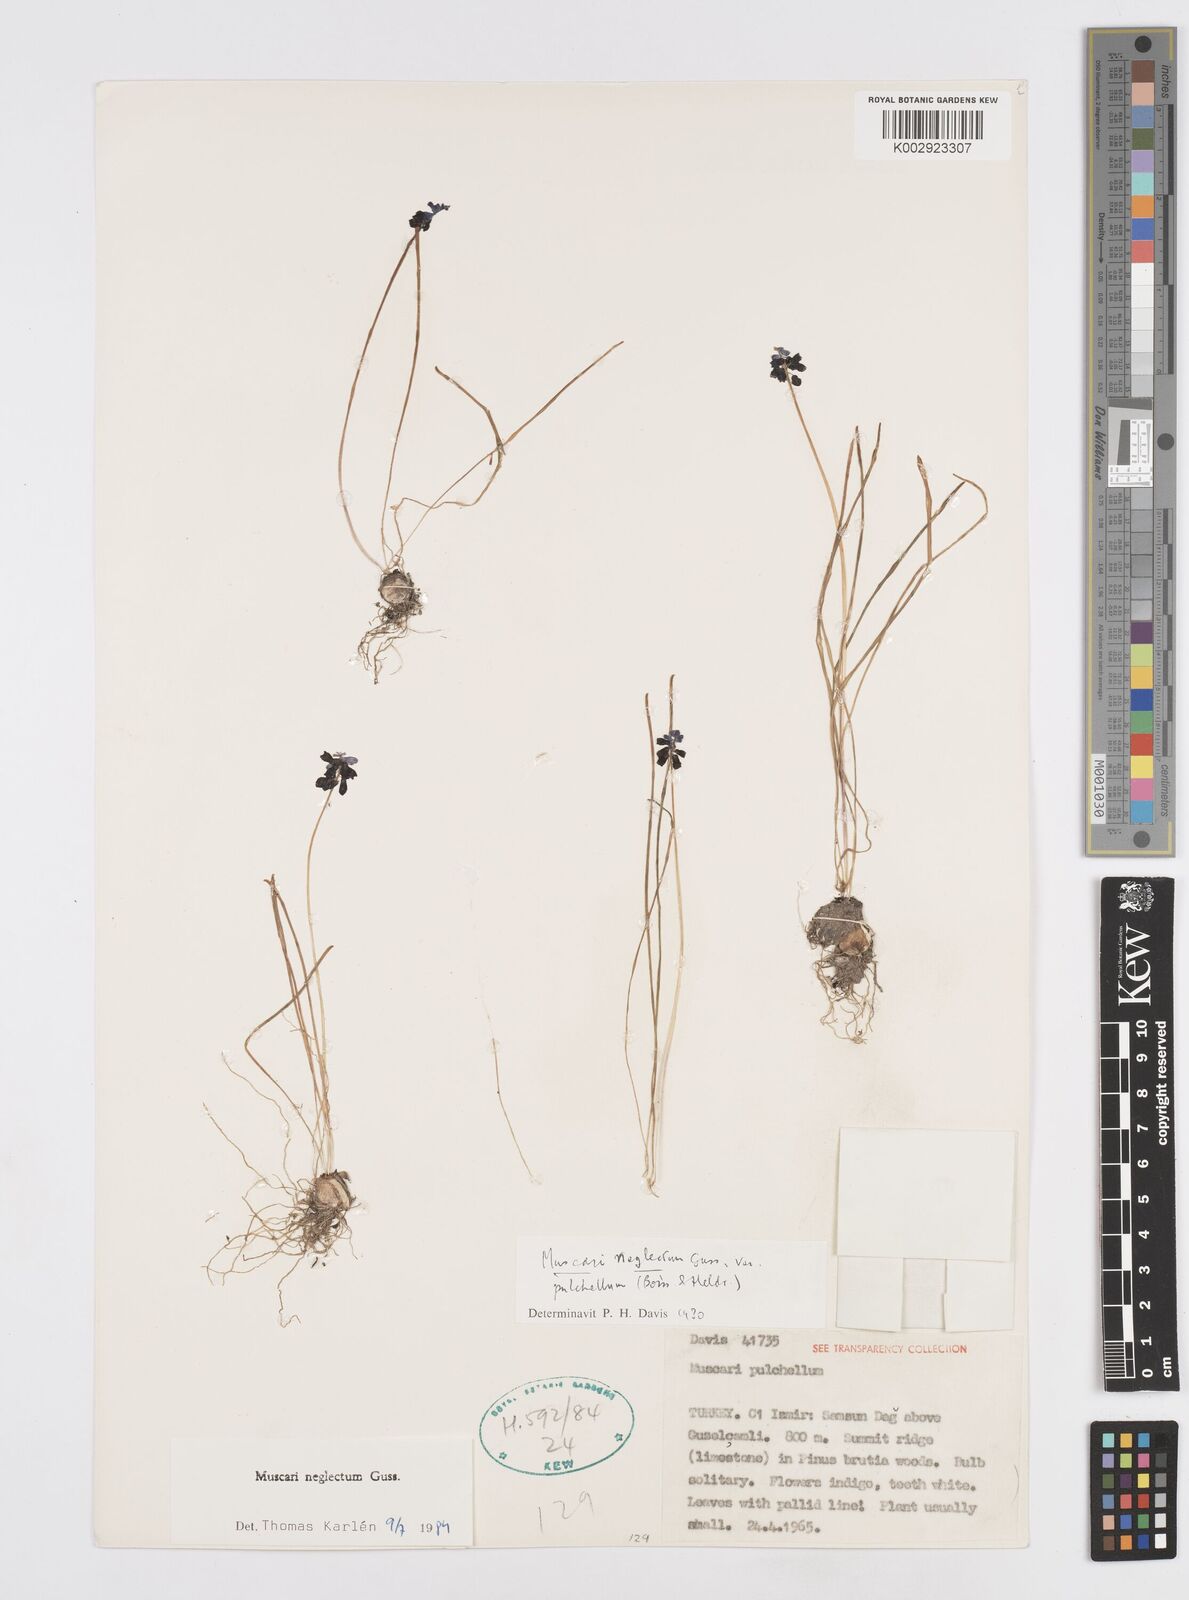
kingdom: Plantae
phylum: Tracheophyta
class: Liliopsida
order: Asparagales
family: Asparagaceae
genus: Muscari
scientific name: Muscari neglectum
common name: Grape-hyacinth
